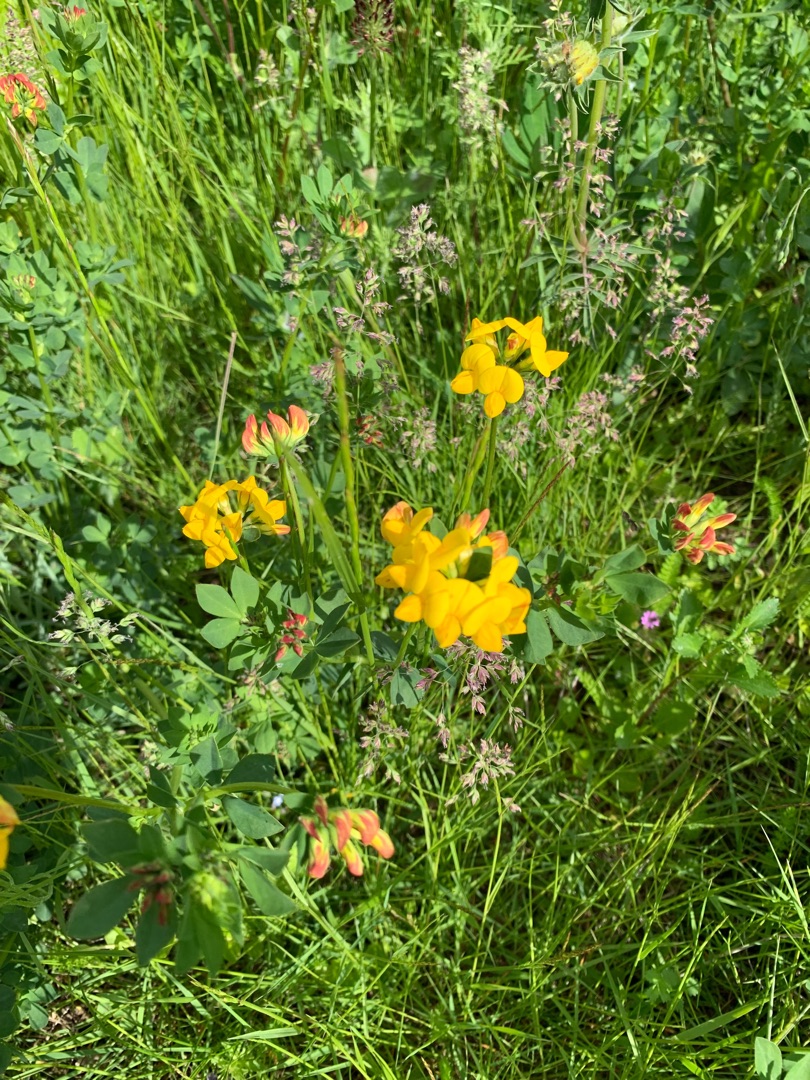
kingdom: Plantae
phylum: Tracheophyta
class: Magnoliopsida
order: Fabales
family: Fabaceae
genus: Lotus
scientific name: Lotus corniculatus
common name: Almindelig kællingetand
